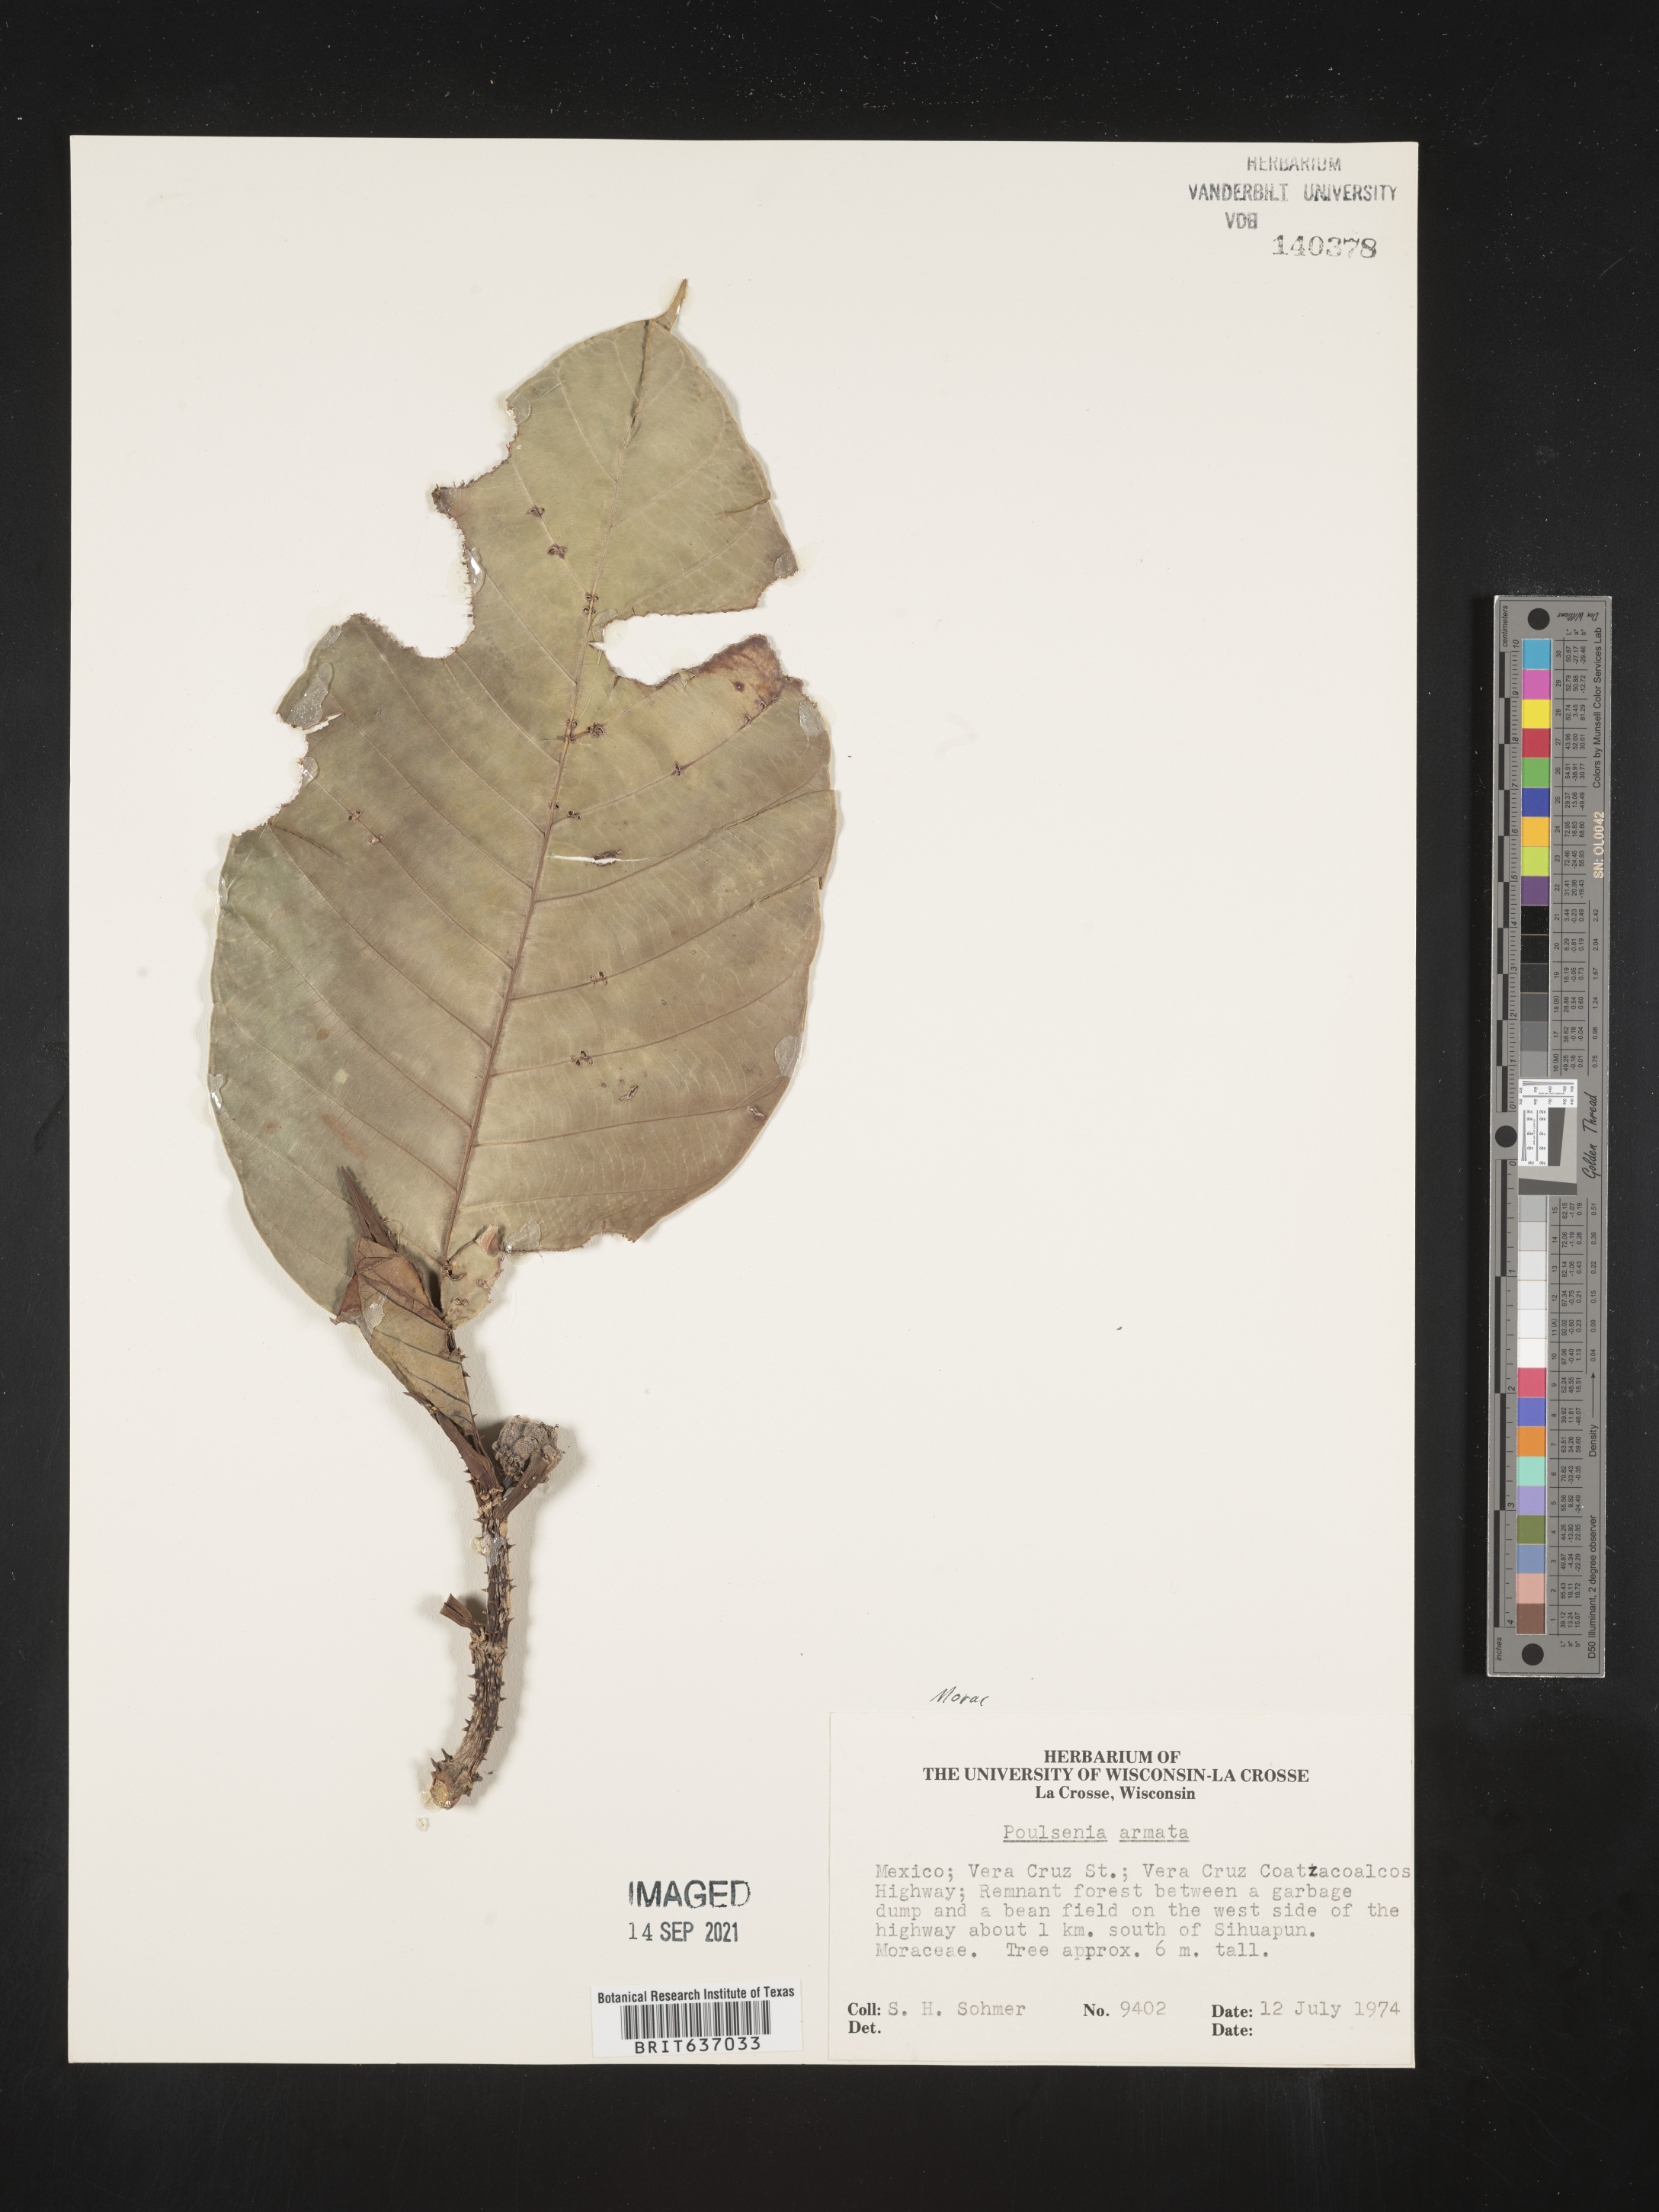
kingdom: Plantae
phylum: Tracheophyta
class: Magnoliopsida
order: Rosales
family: Moraceae
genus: Poulsenia
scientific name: Poulsenia armata
